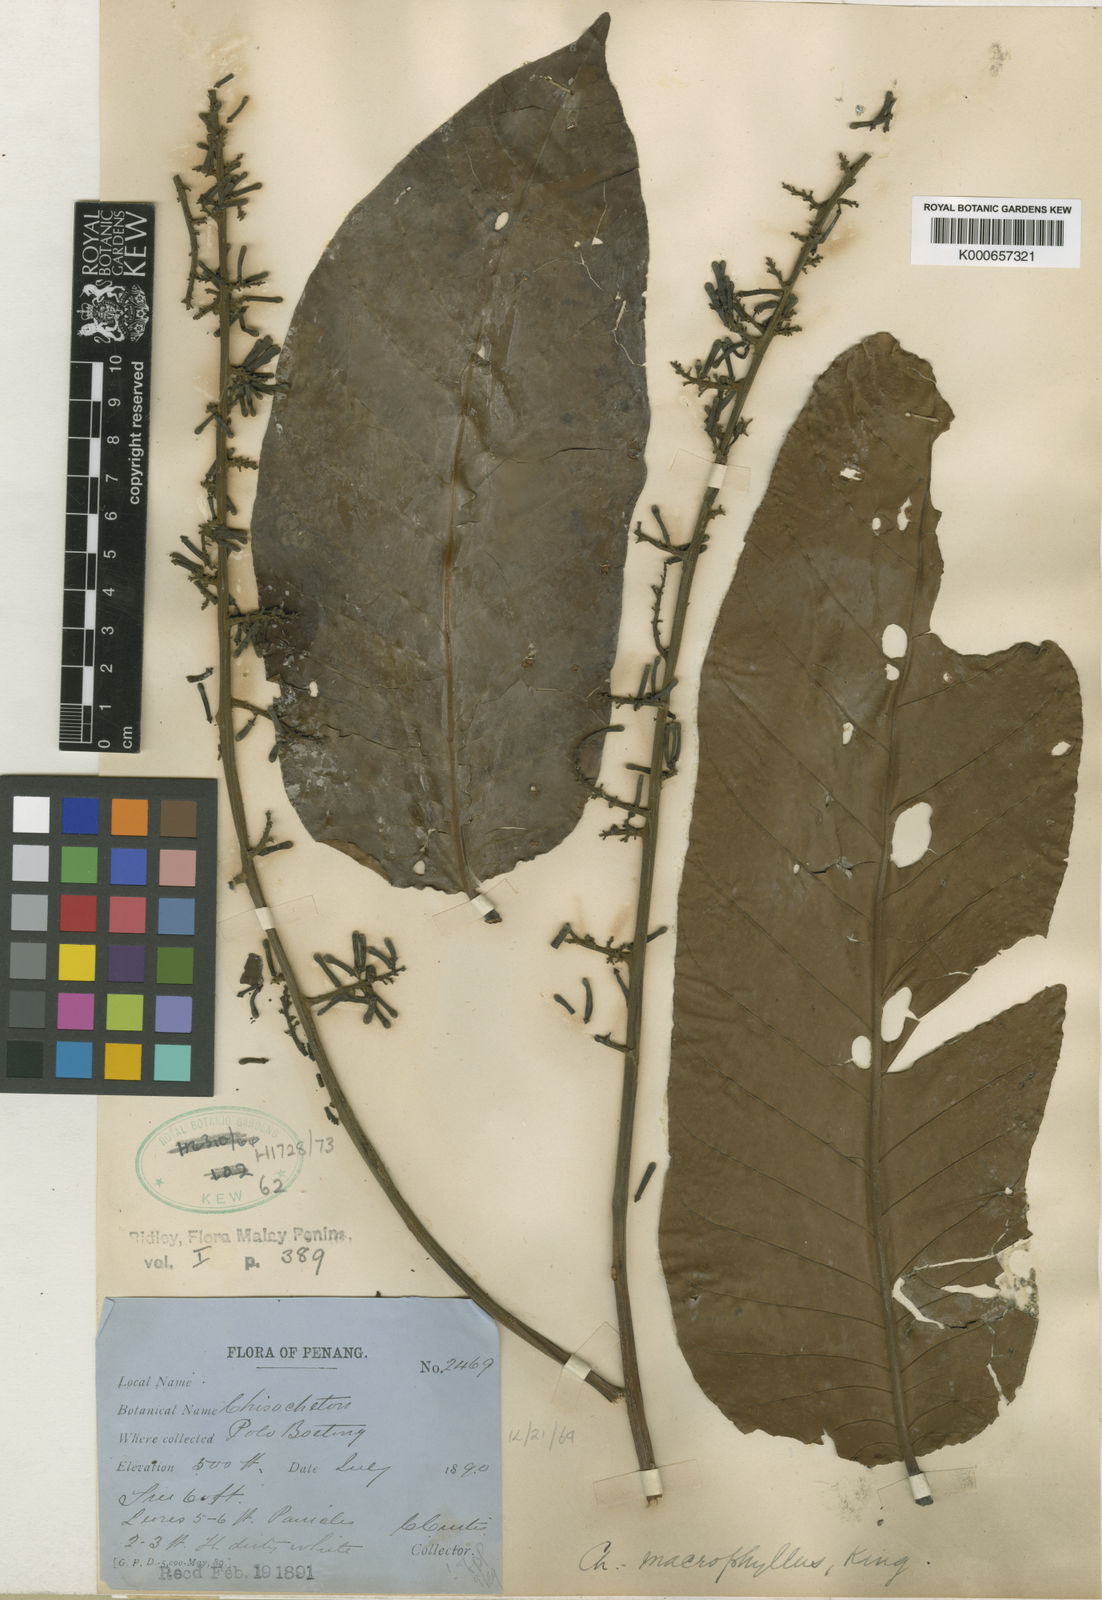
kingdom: Plantae
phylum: Tracheophyta
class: Magnoliopsida
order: Sapindales
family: Meliaceae
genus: Chisocheton
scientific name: Chisocheton macrophyllus
